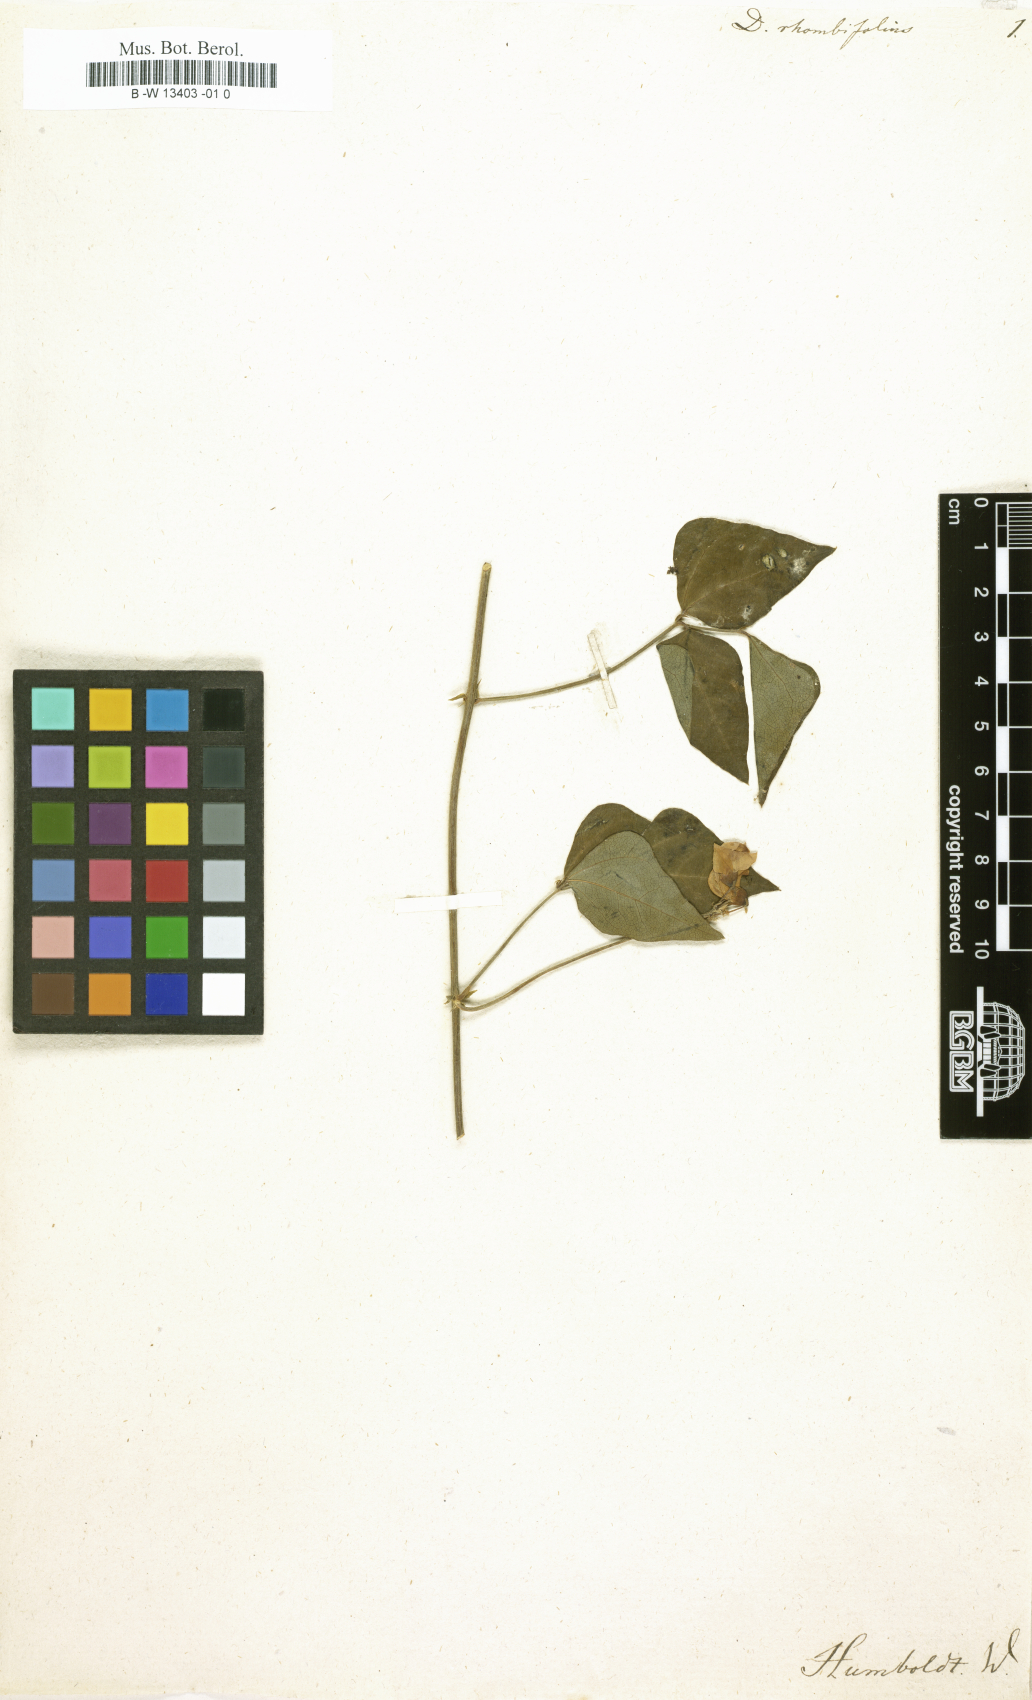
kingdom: Plantae
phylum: Tracheophyta
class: Magnoliopsida
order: Fabales
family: Fabaceae
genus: Dysolobium
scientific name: Dysolobium pilosum
